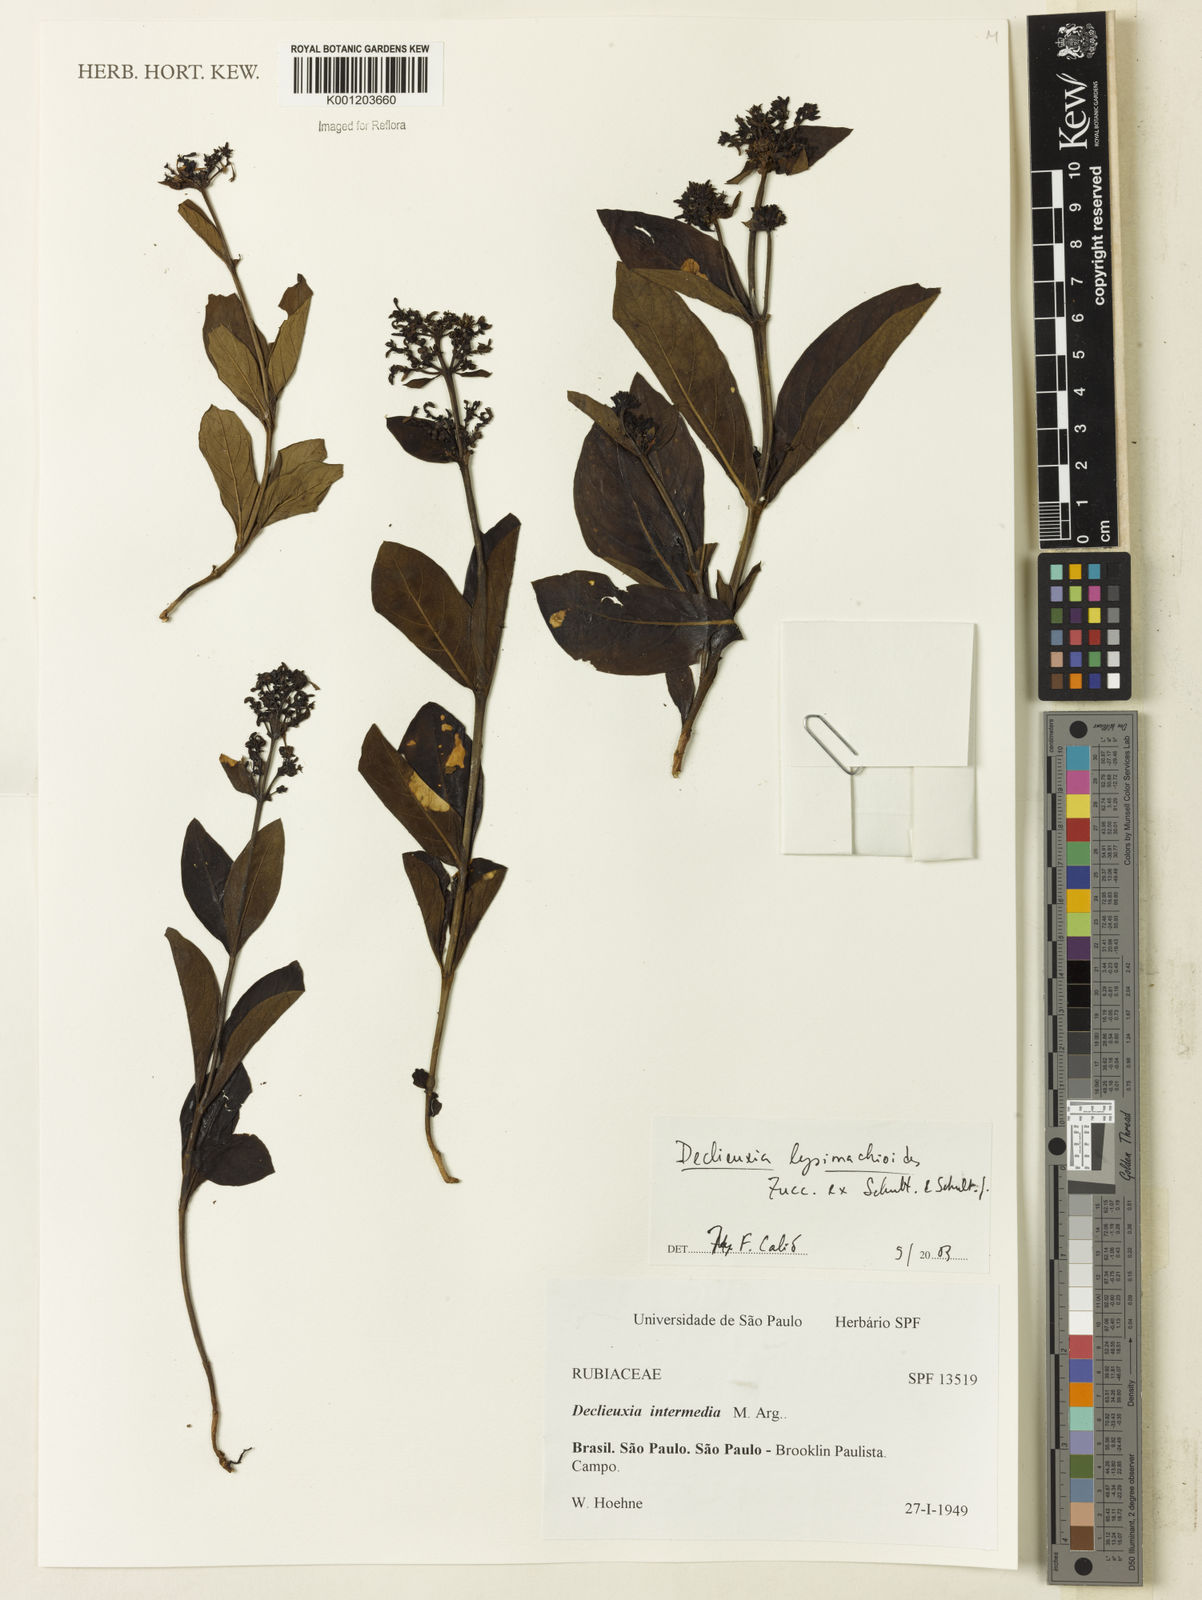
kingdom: Plantae
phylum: Tracheophyta
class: Magnoliopsida
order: Gentianales
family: Rubiaceae
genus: Declieuxia
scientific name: Declieuxia
